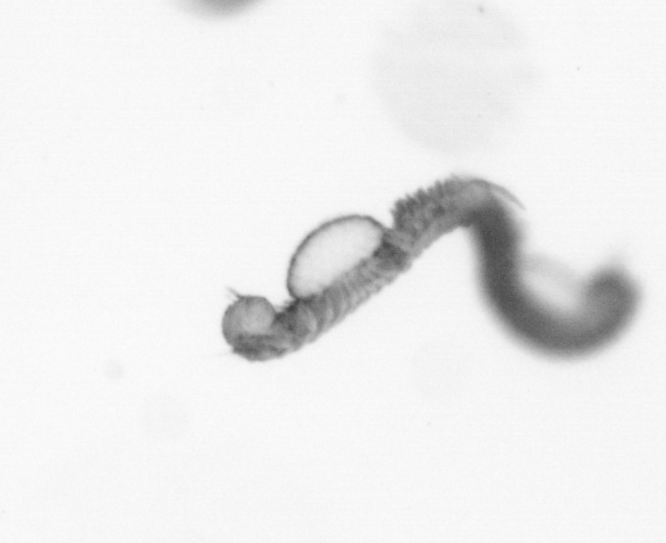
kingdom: Animalia
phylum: Annelida
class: Polychaeta
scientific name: Polychaeta
